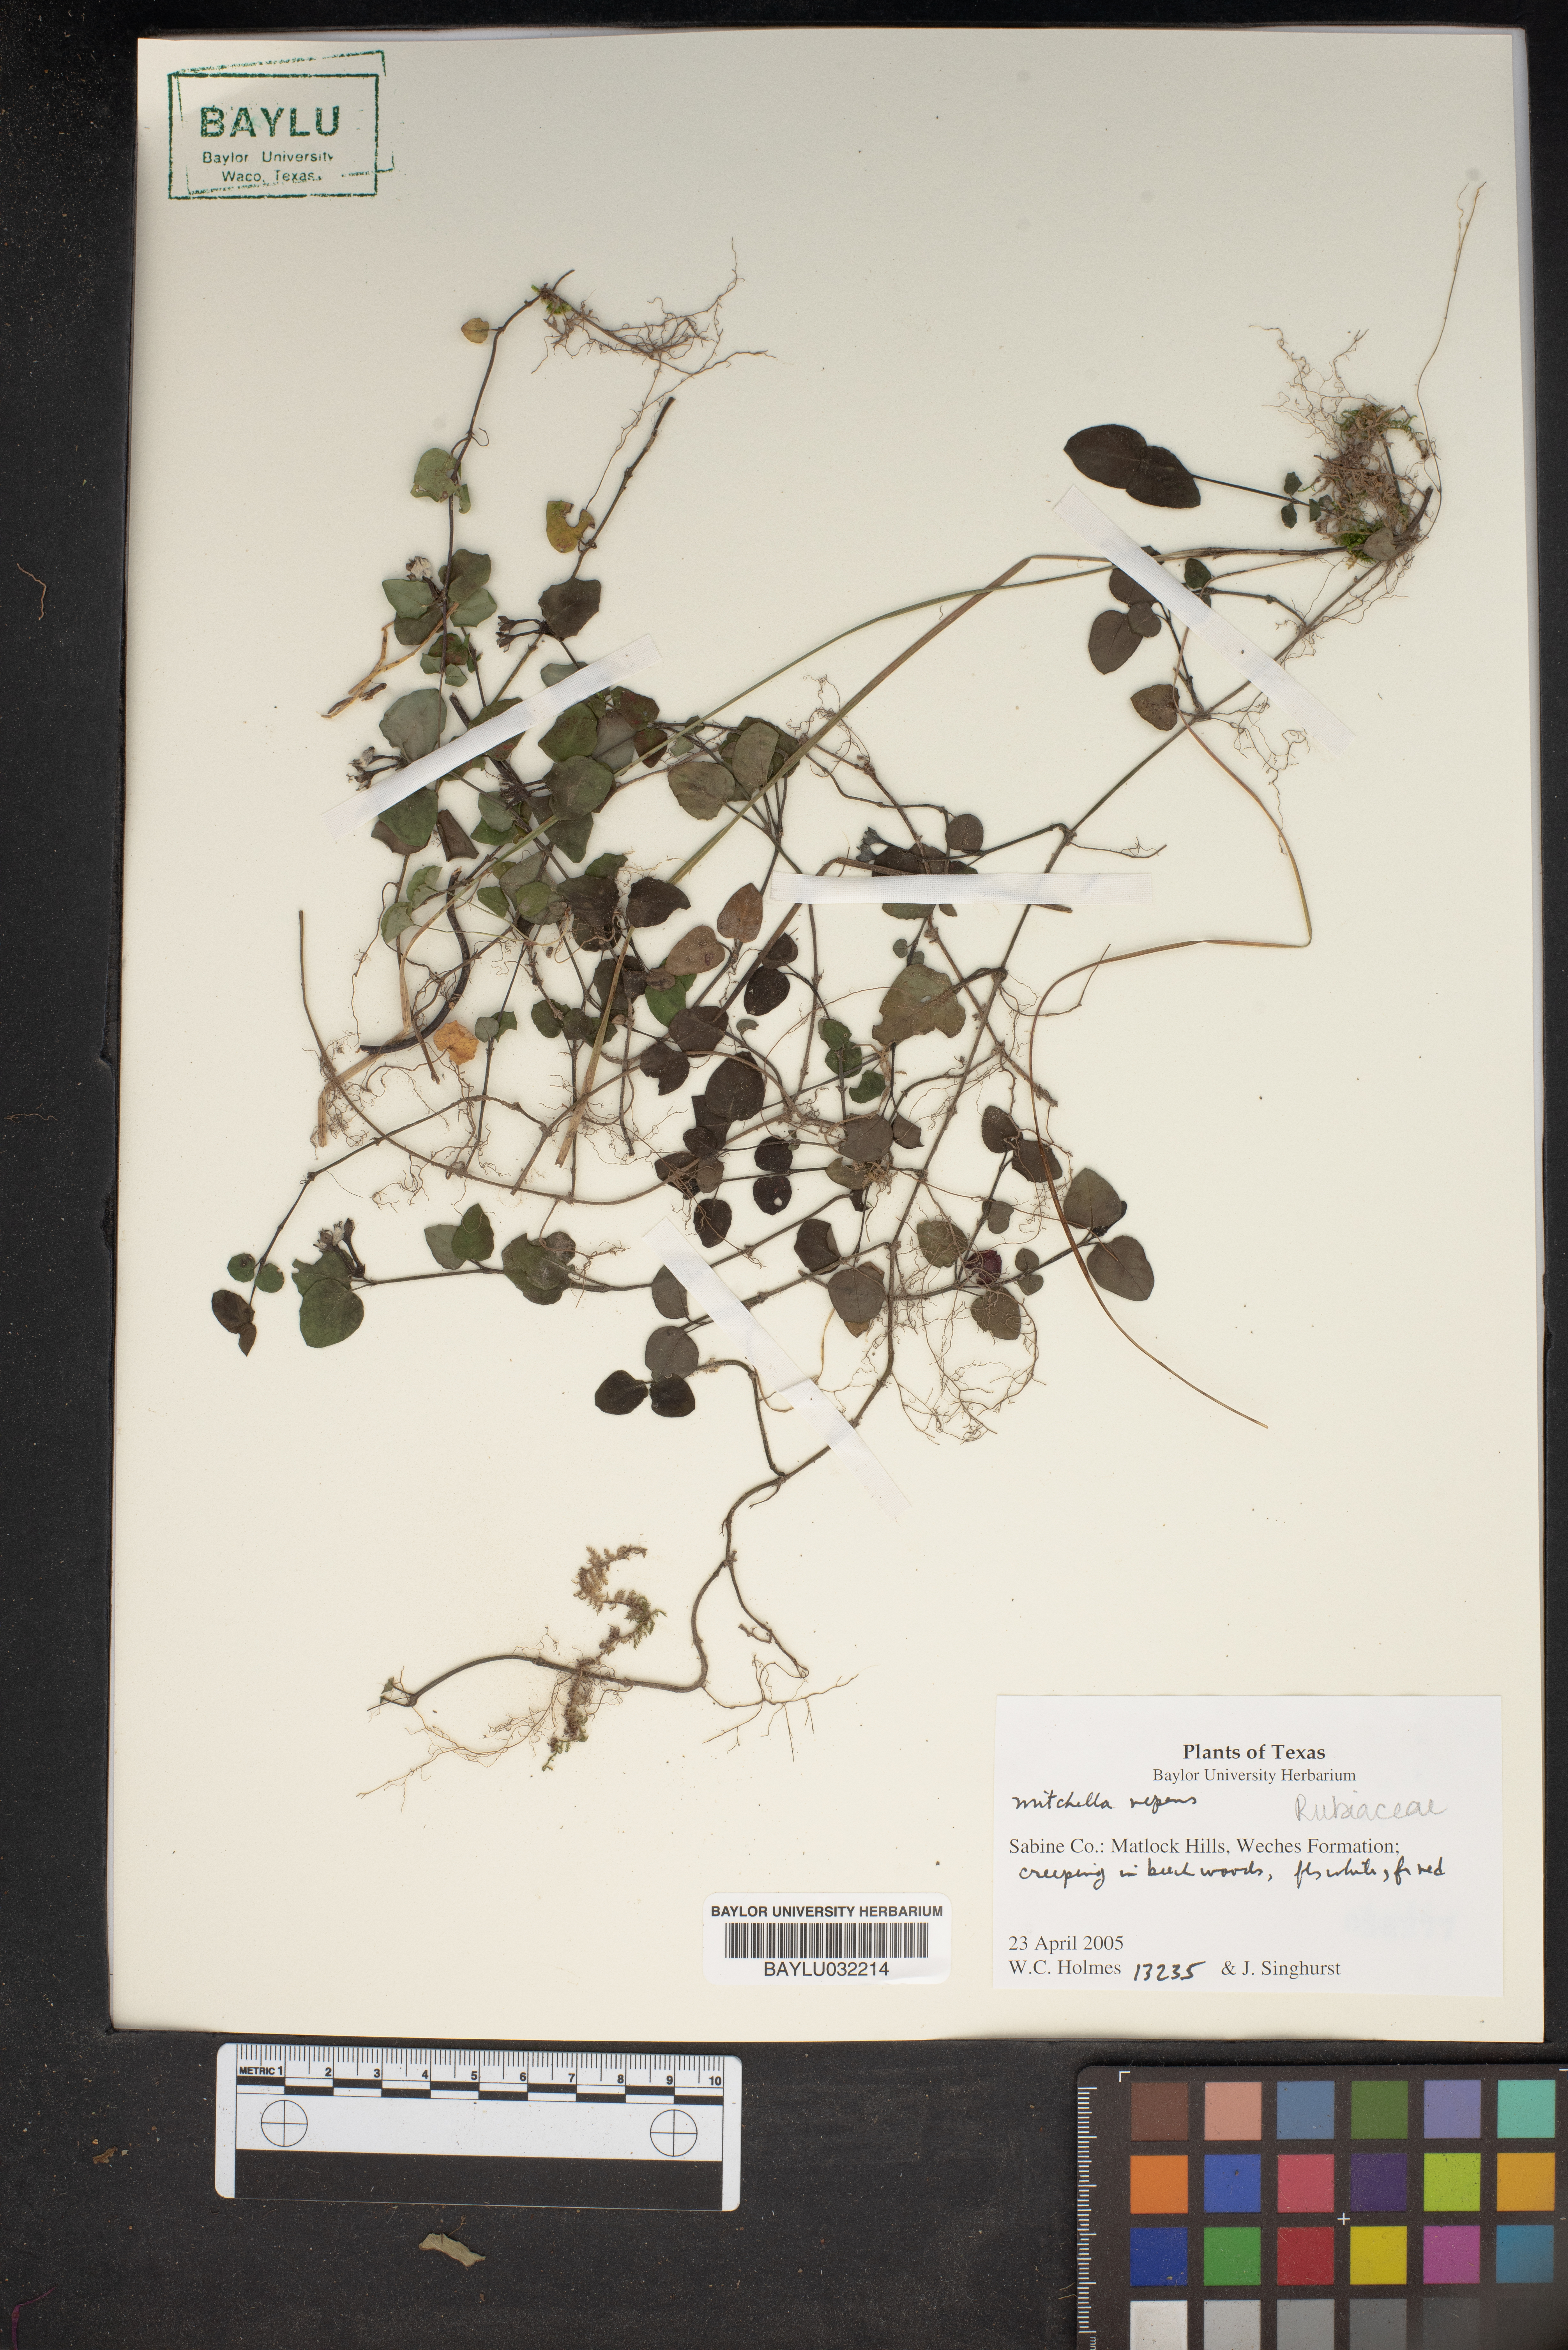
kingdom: Plantae
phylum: Tracheophyta
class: Magnoliopsida
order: Gentianales
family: Rubiaceae
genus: Mitchella
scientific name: Mitchella repens
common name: Partridge-berry
